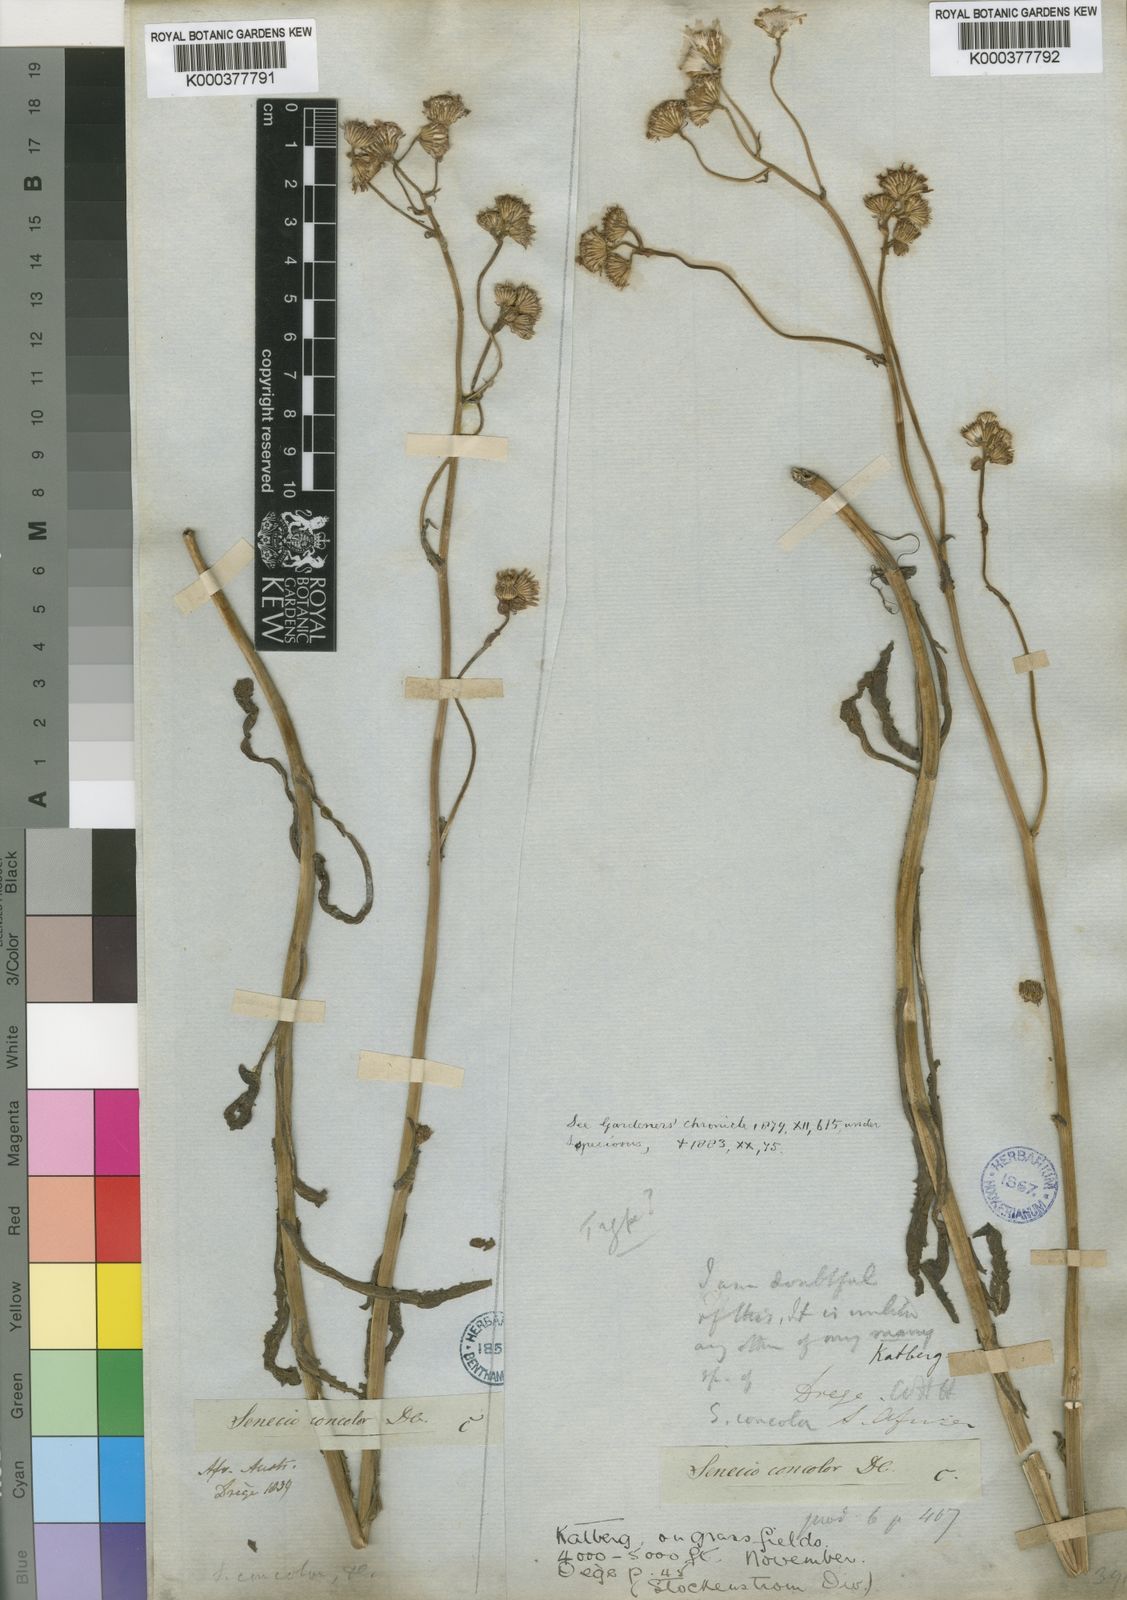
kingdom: Plantae
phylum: Tracheophyta
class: Magnoliopsida
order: Asterales
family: Asteraceae
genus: Senecio
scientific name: Senecio speciosus
